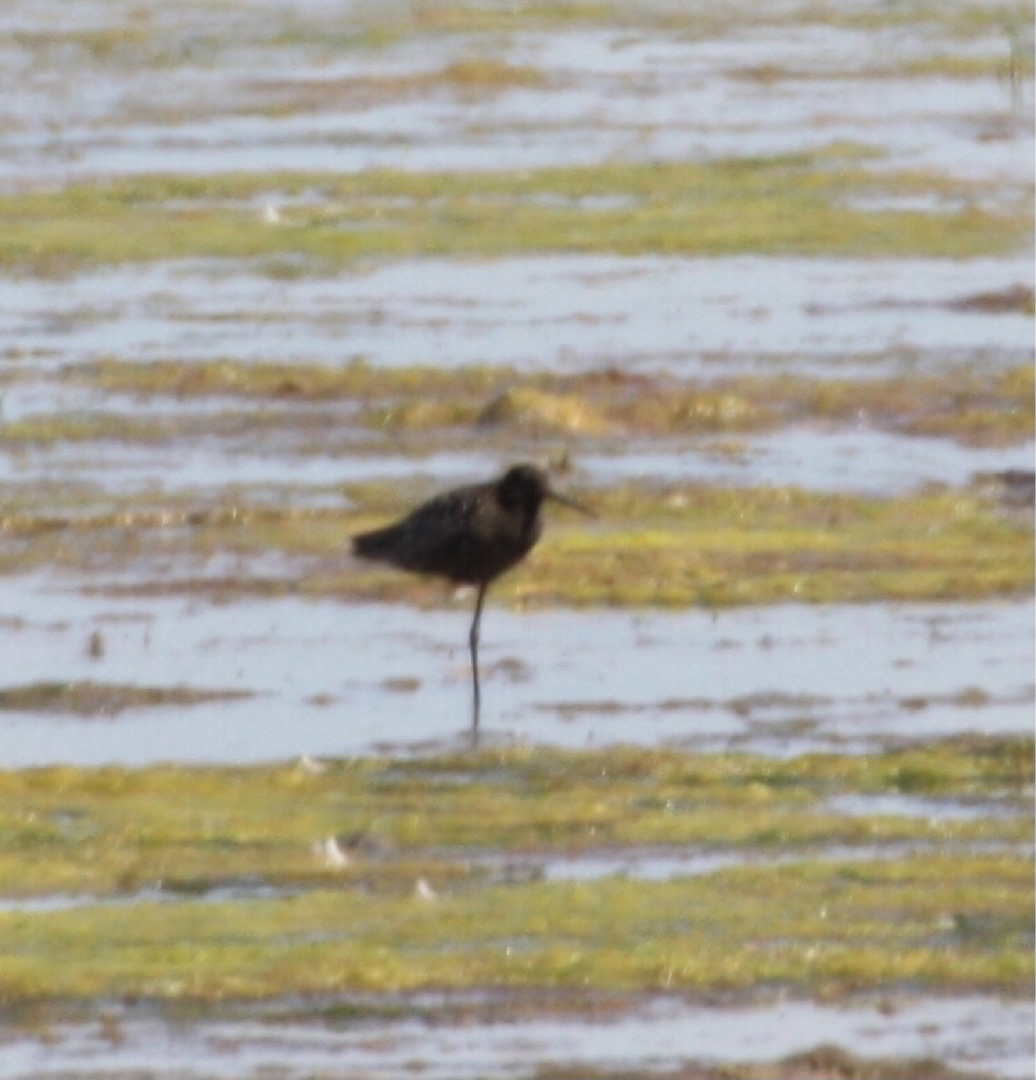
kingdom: Animalia
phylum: Chordata
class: Aves
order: Charadriiformes
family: Scolopacidae
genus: Tringa
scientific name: Tringa erythropus
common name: Sortklire
